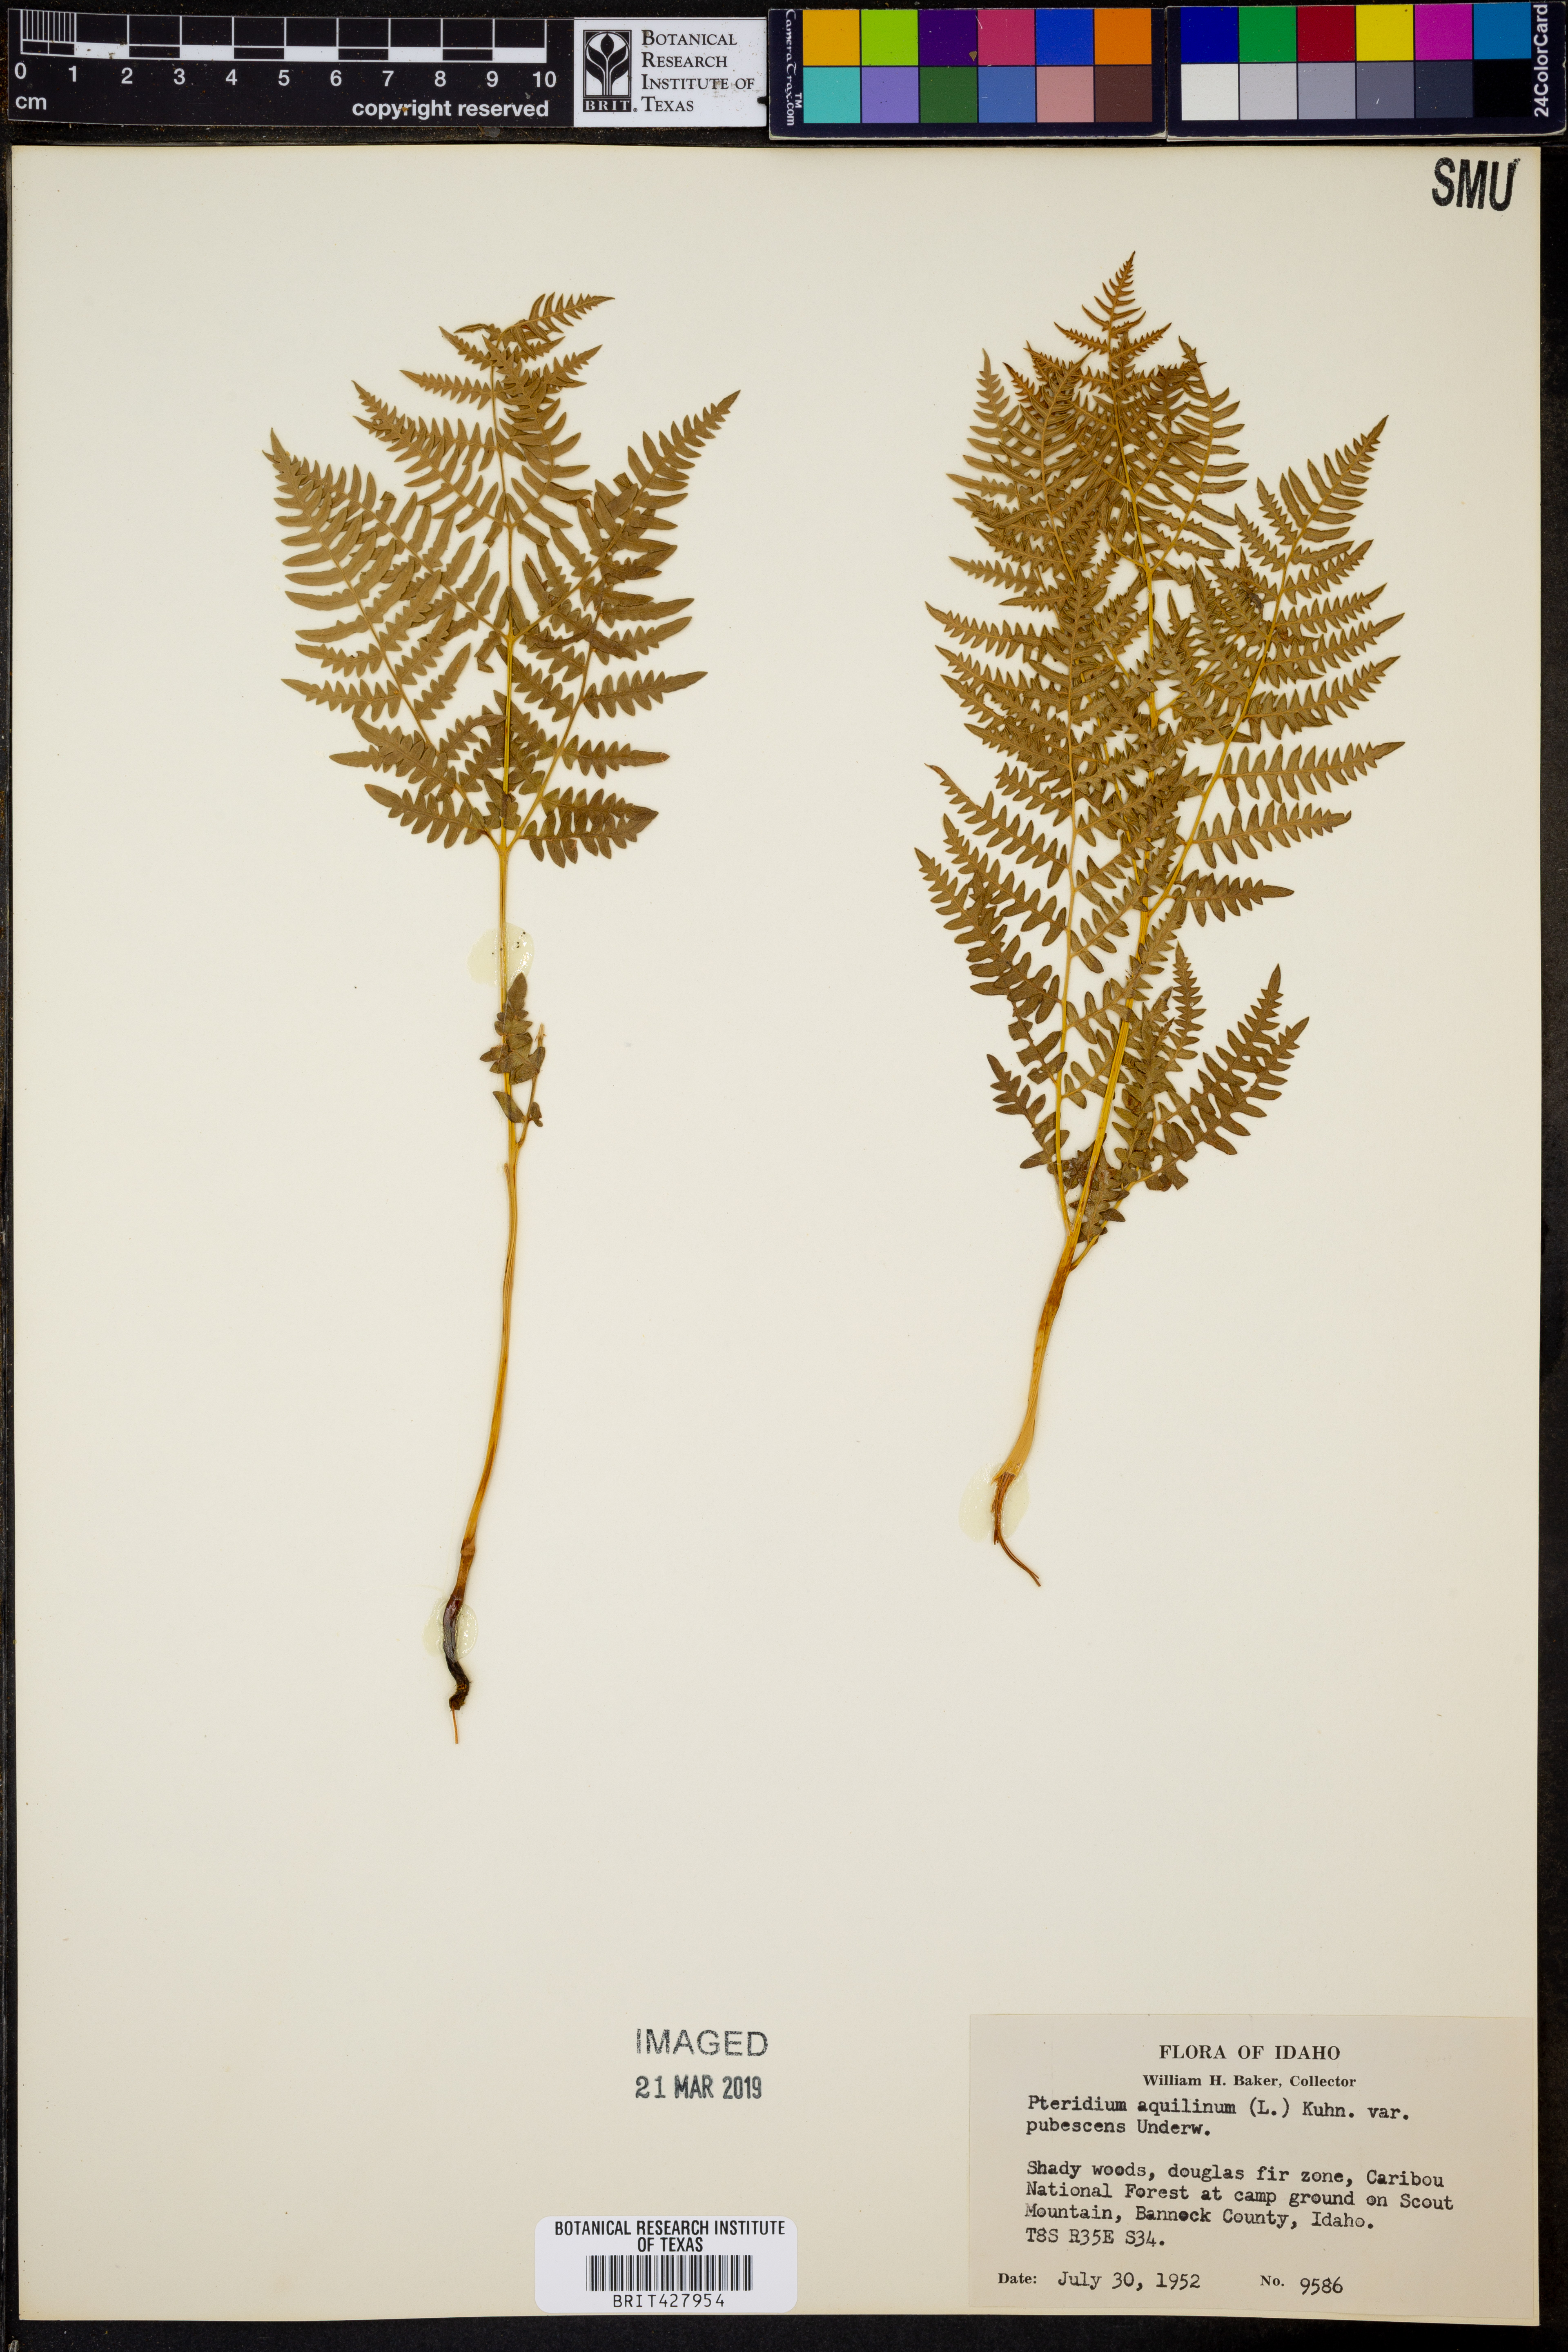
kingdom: Plantae
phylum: Tracheophyta
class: Polypodiopsida
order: Polypodiales
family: Dennstaedtiaceae
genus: Pteridium
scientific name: Pteridium aquilinum
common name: Bracken
